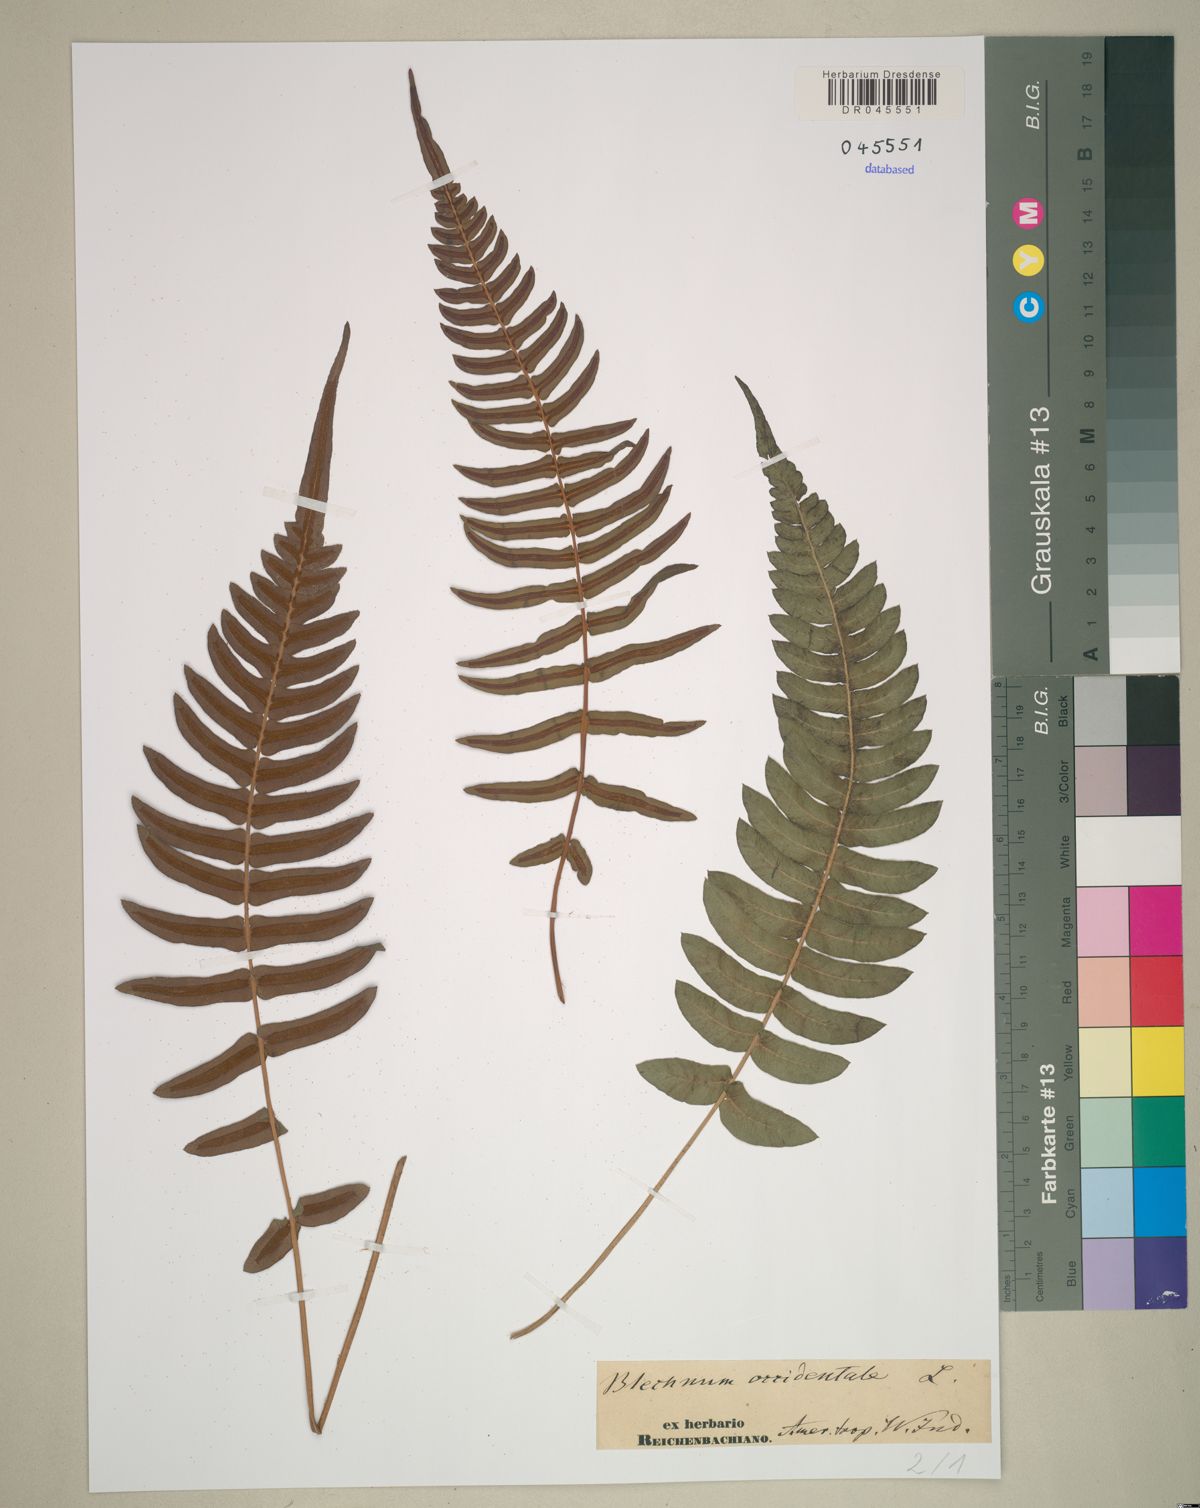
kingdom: Plantae
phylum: Tracheophyta
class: Polypodiopsida
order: Polypodiales
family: Blechnaceae
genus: Blechnum
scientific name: Blechnum occidentale
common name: Hammock fern
